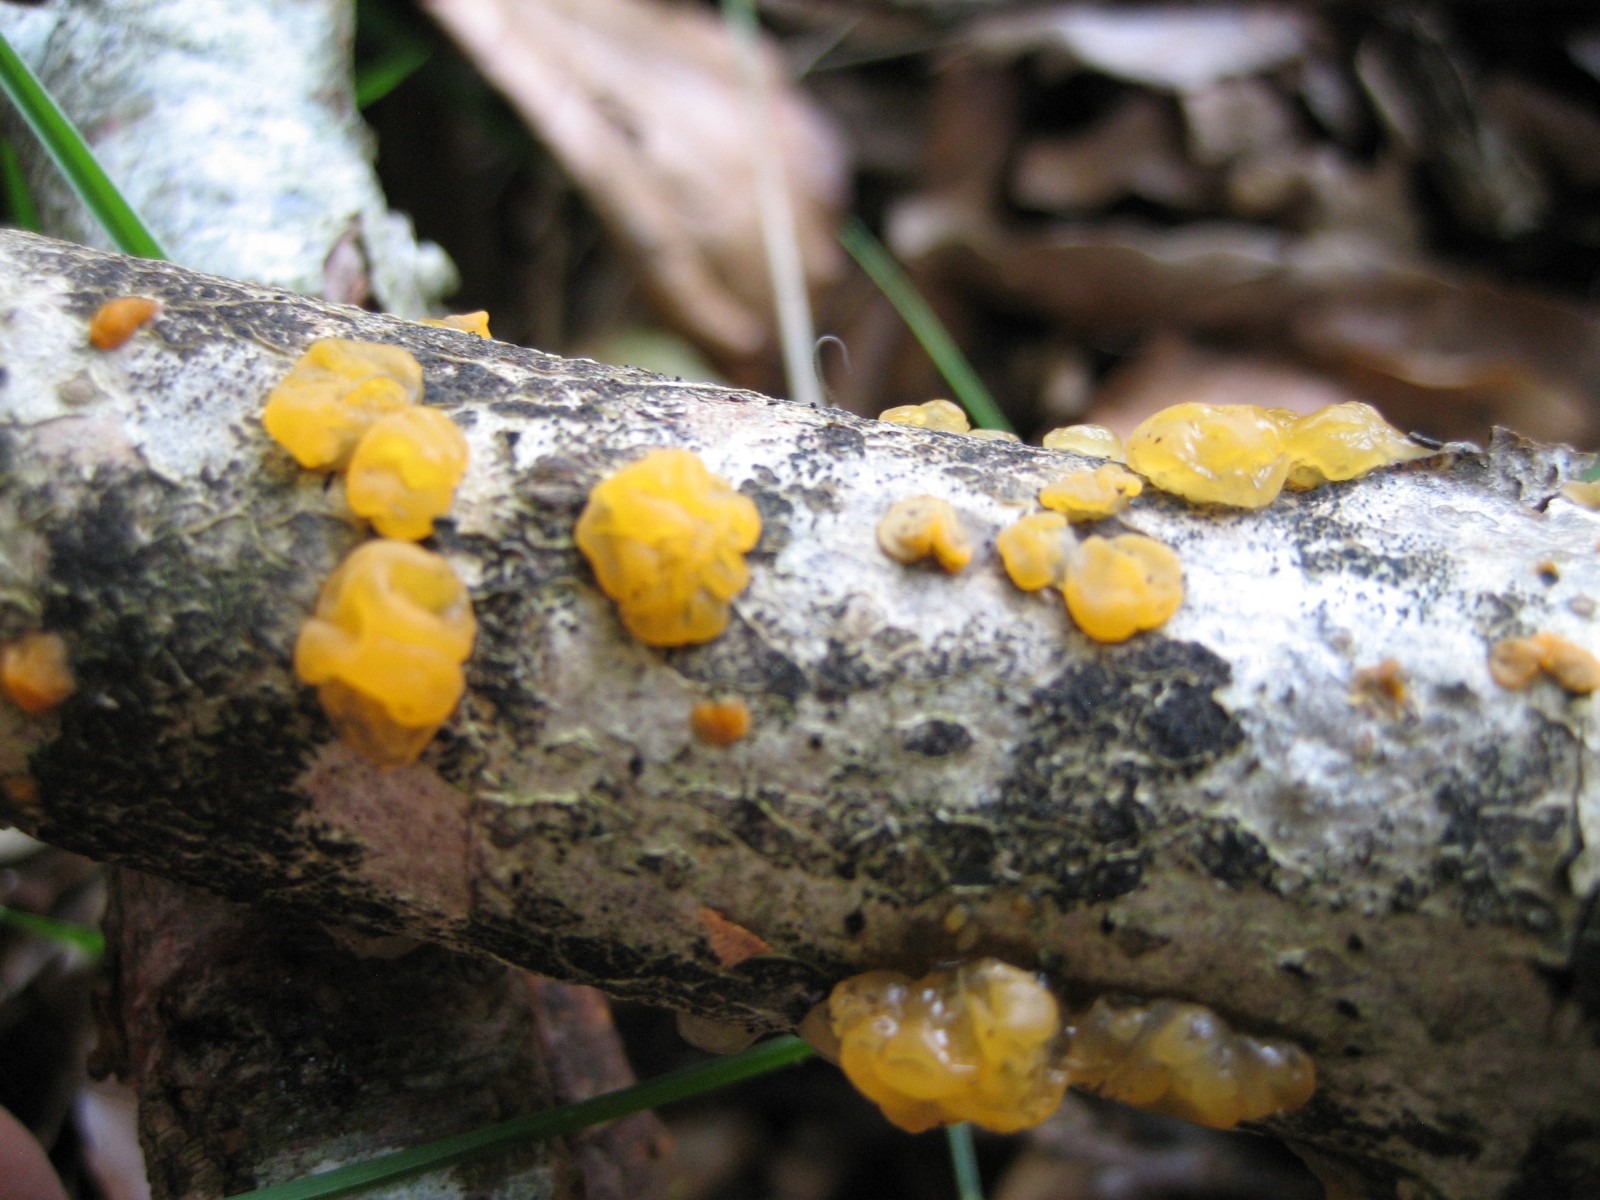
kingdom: Fungi
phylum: Basidiomycota
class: Dacrymycetes
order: Dacrymycetales
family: Dacrymycetaceae
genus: Dacrymyces
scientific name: Dacrymyces lacrymalis
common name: rynket tåresvamp
